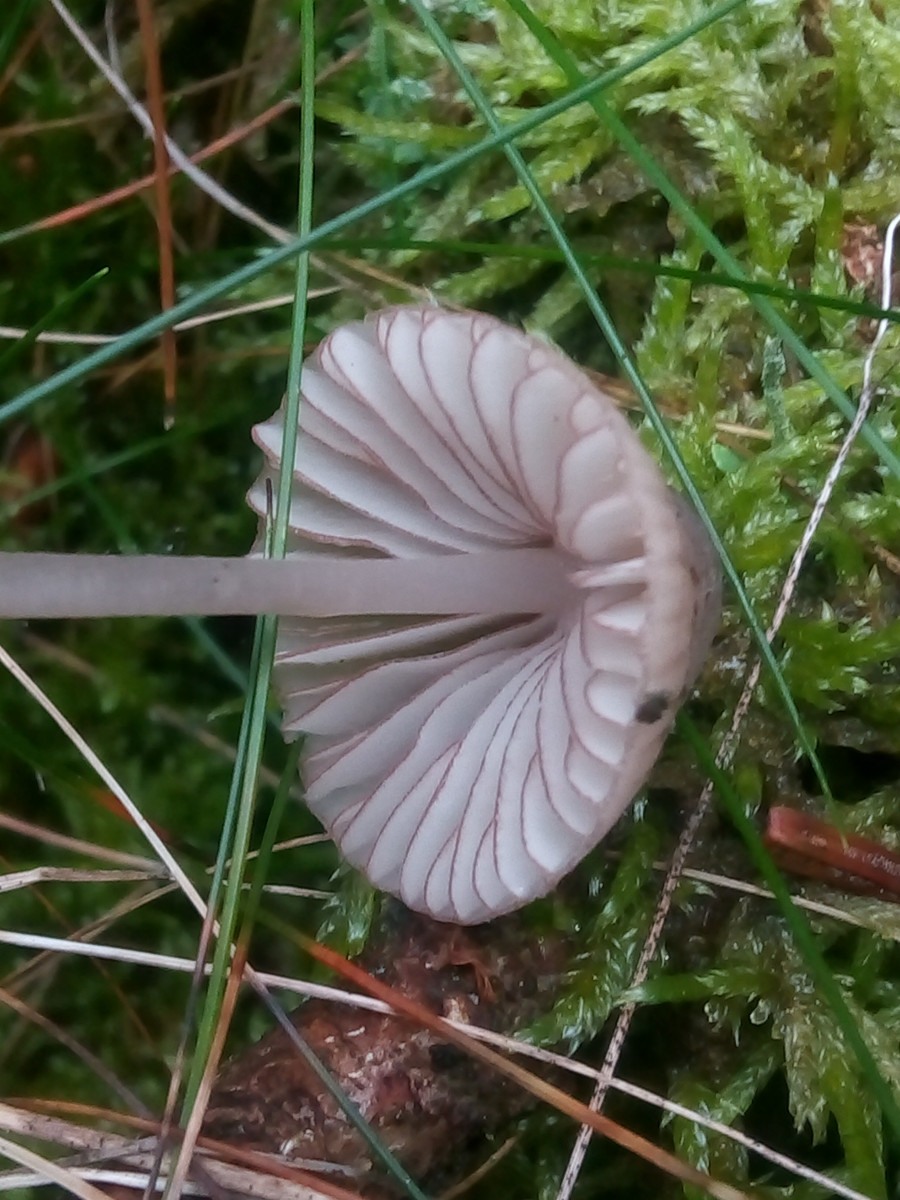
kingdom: Fungi
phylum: Basidiomycota
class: Agaricomycetes
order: Agaricales
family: Mycenaceae
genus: Mycena
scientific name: Mycena rubromarginata
